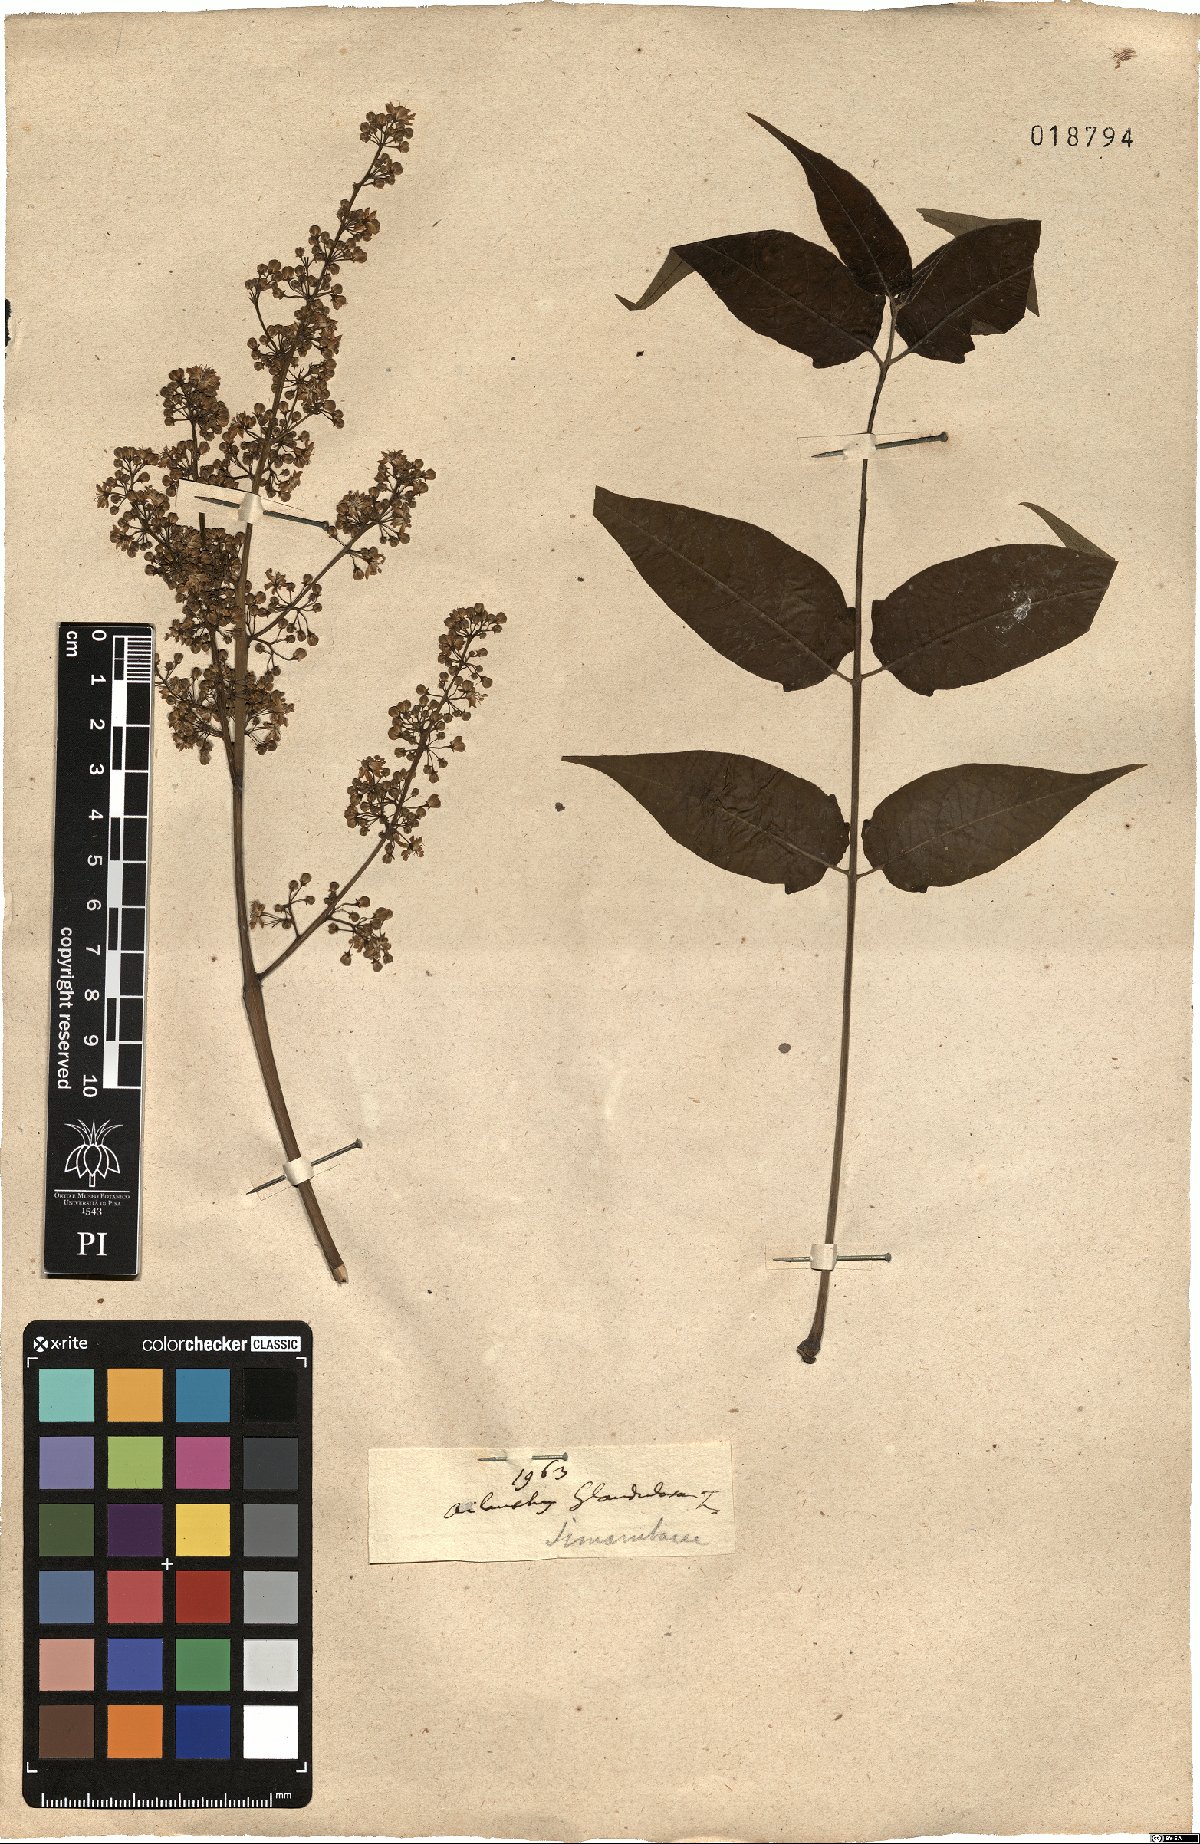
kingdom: Plantae
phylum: Tracheophyta
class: Magnoliopsida
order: Sapindales
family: Simaroubaceae
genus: Ailanthus
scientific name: Ailanthus altissima
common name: Tree-of-heaven
